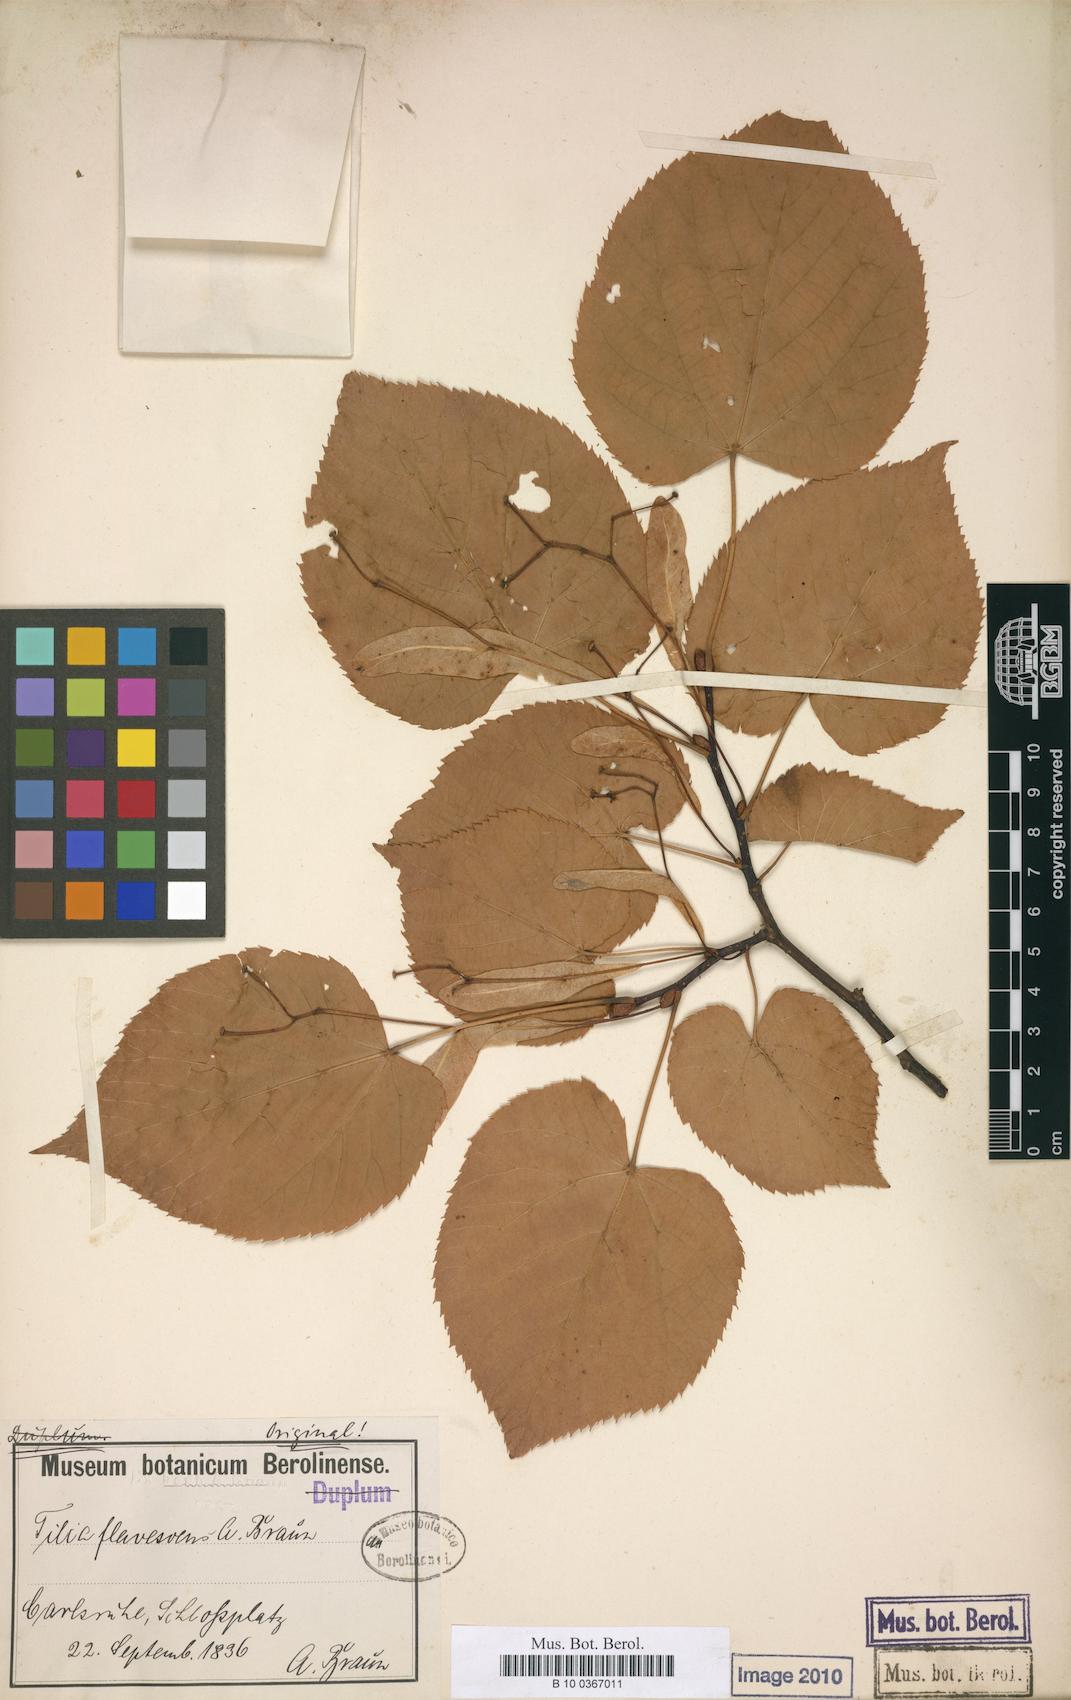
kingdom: Plantae
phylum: Tracheophyta
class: Magnoliopsida
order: Malvales
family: Malvaceae
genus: Tilia
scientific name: Tilia flavescens
